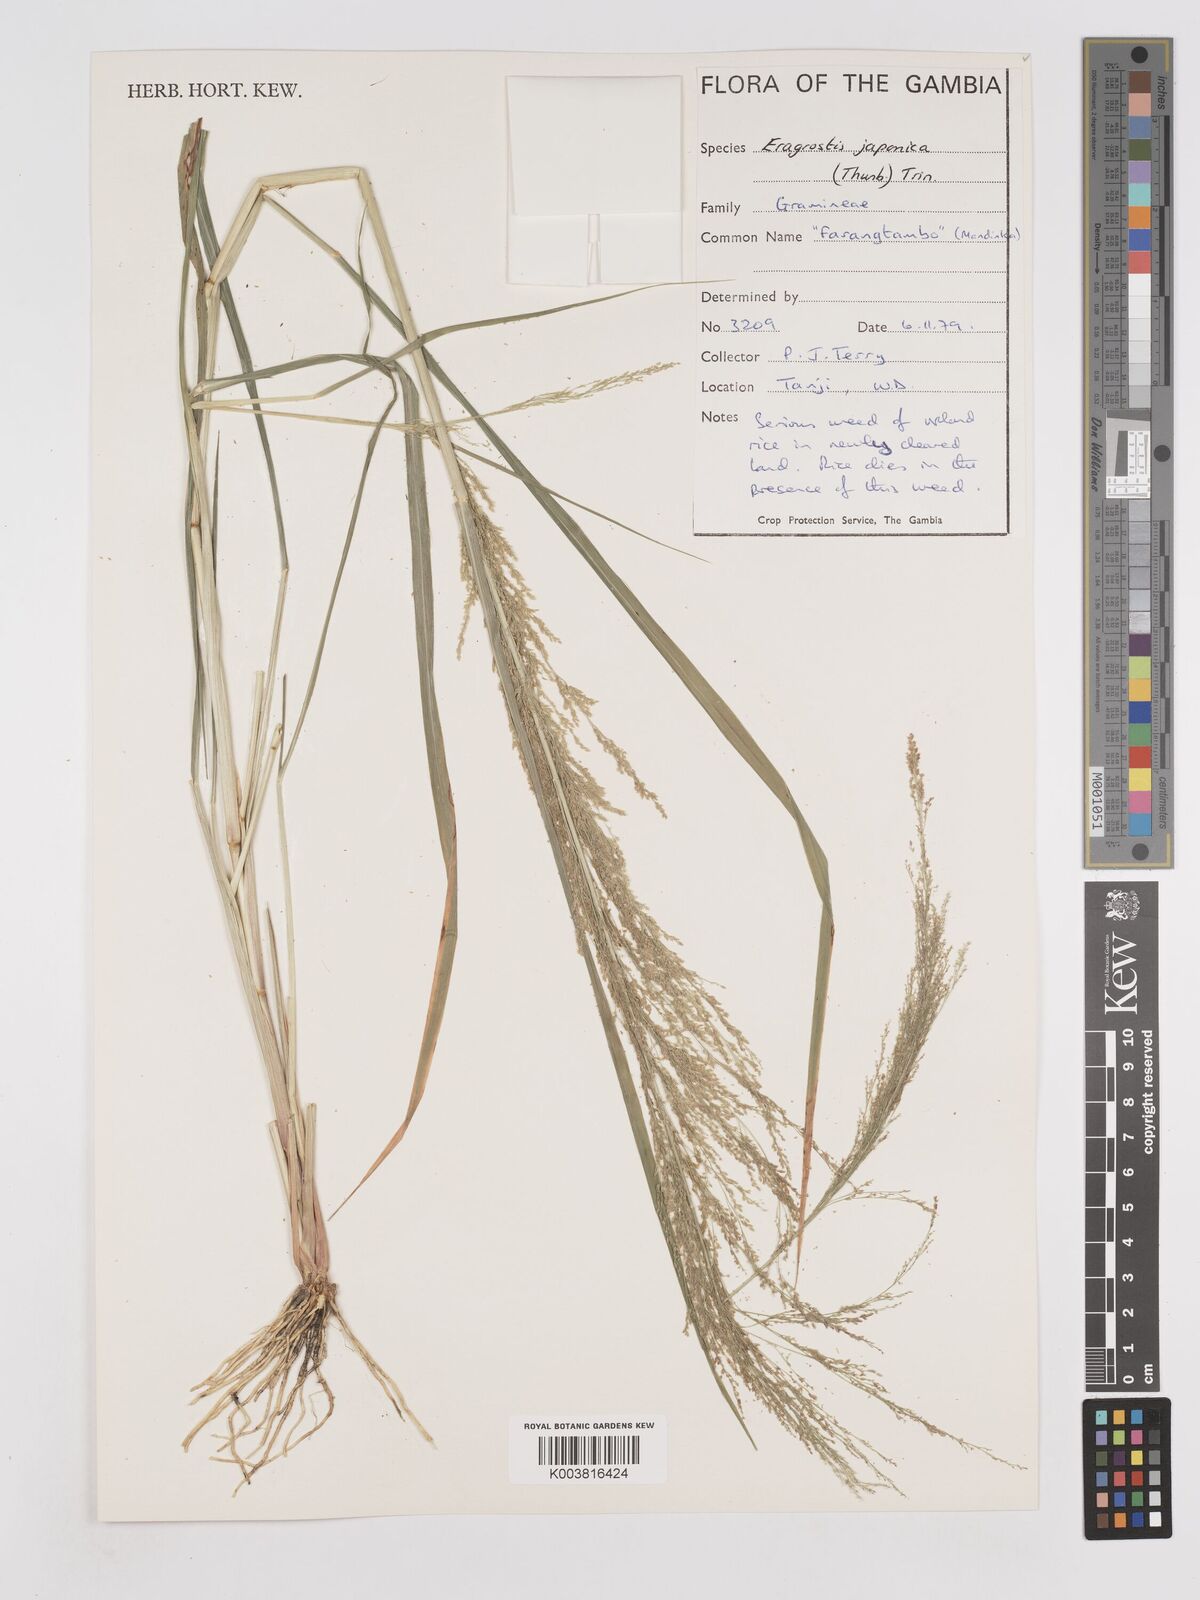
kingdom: Plantae
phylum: Tracheophyta
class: Liliopsida
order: Poales
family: Poaceae
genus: Eragrostis
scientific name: Eragrostis japonica
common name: Pond lovegrass
